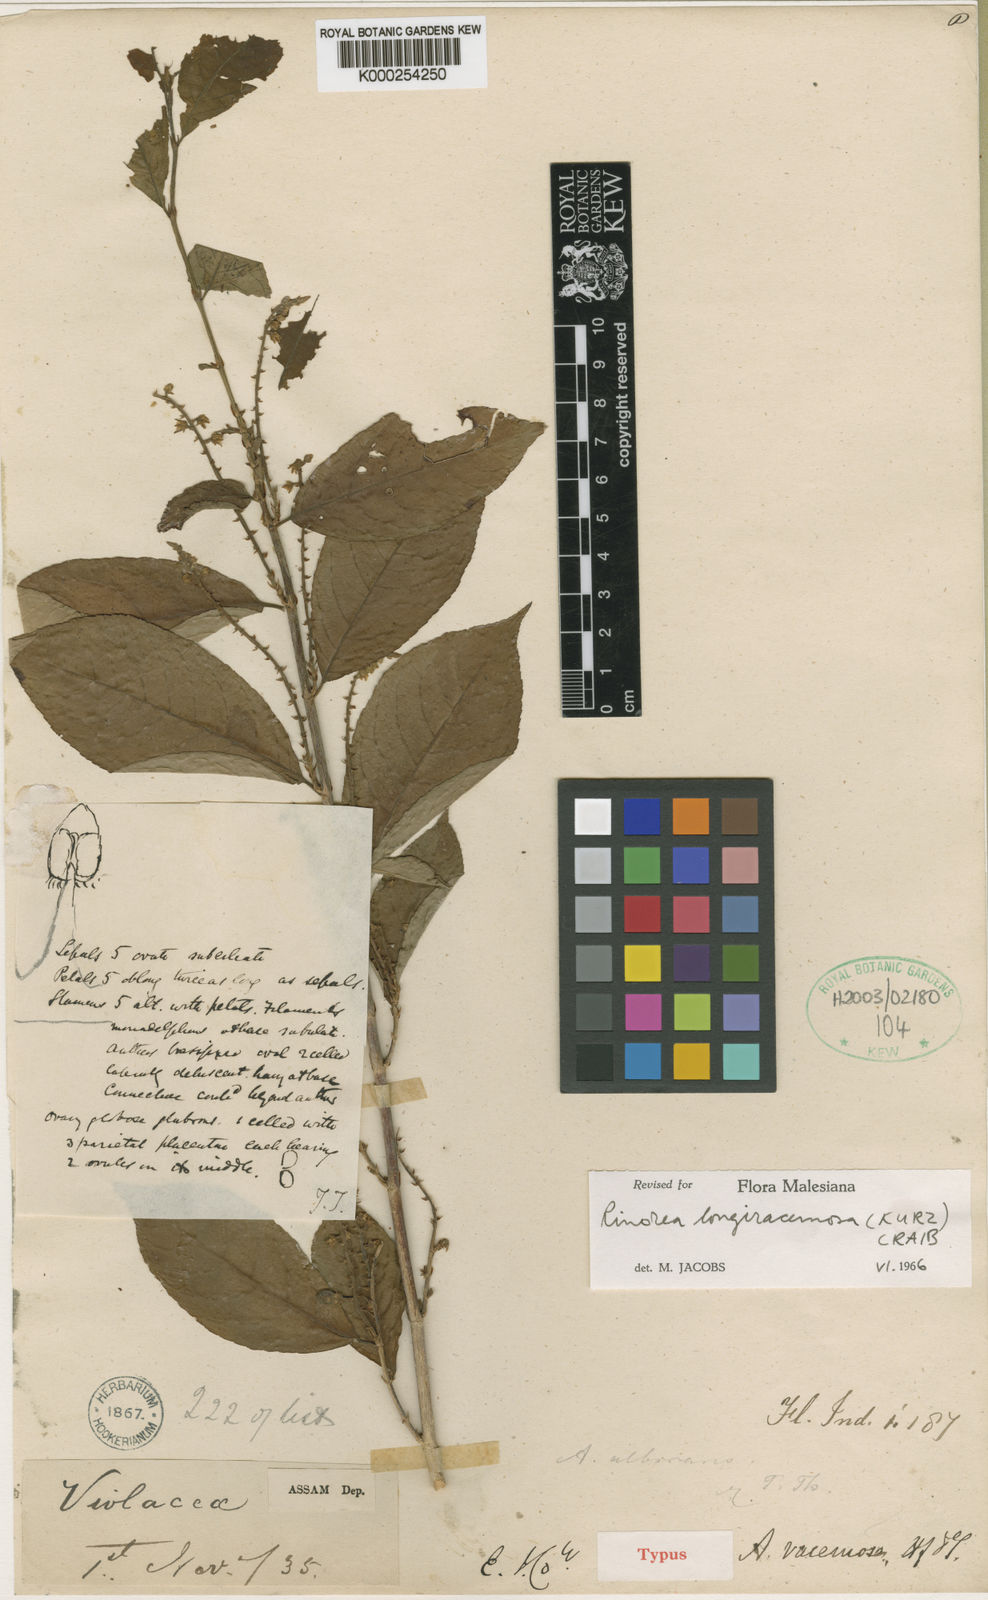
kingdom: Plantae
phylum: Tracheophyta
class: Magnoliopsida
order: Malpighiales
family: Violaceae
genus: Rinorea
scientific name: Rinorea longiracemosa
